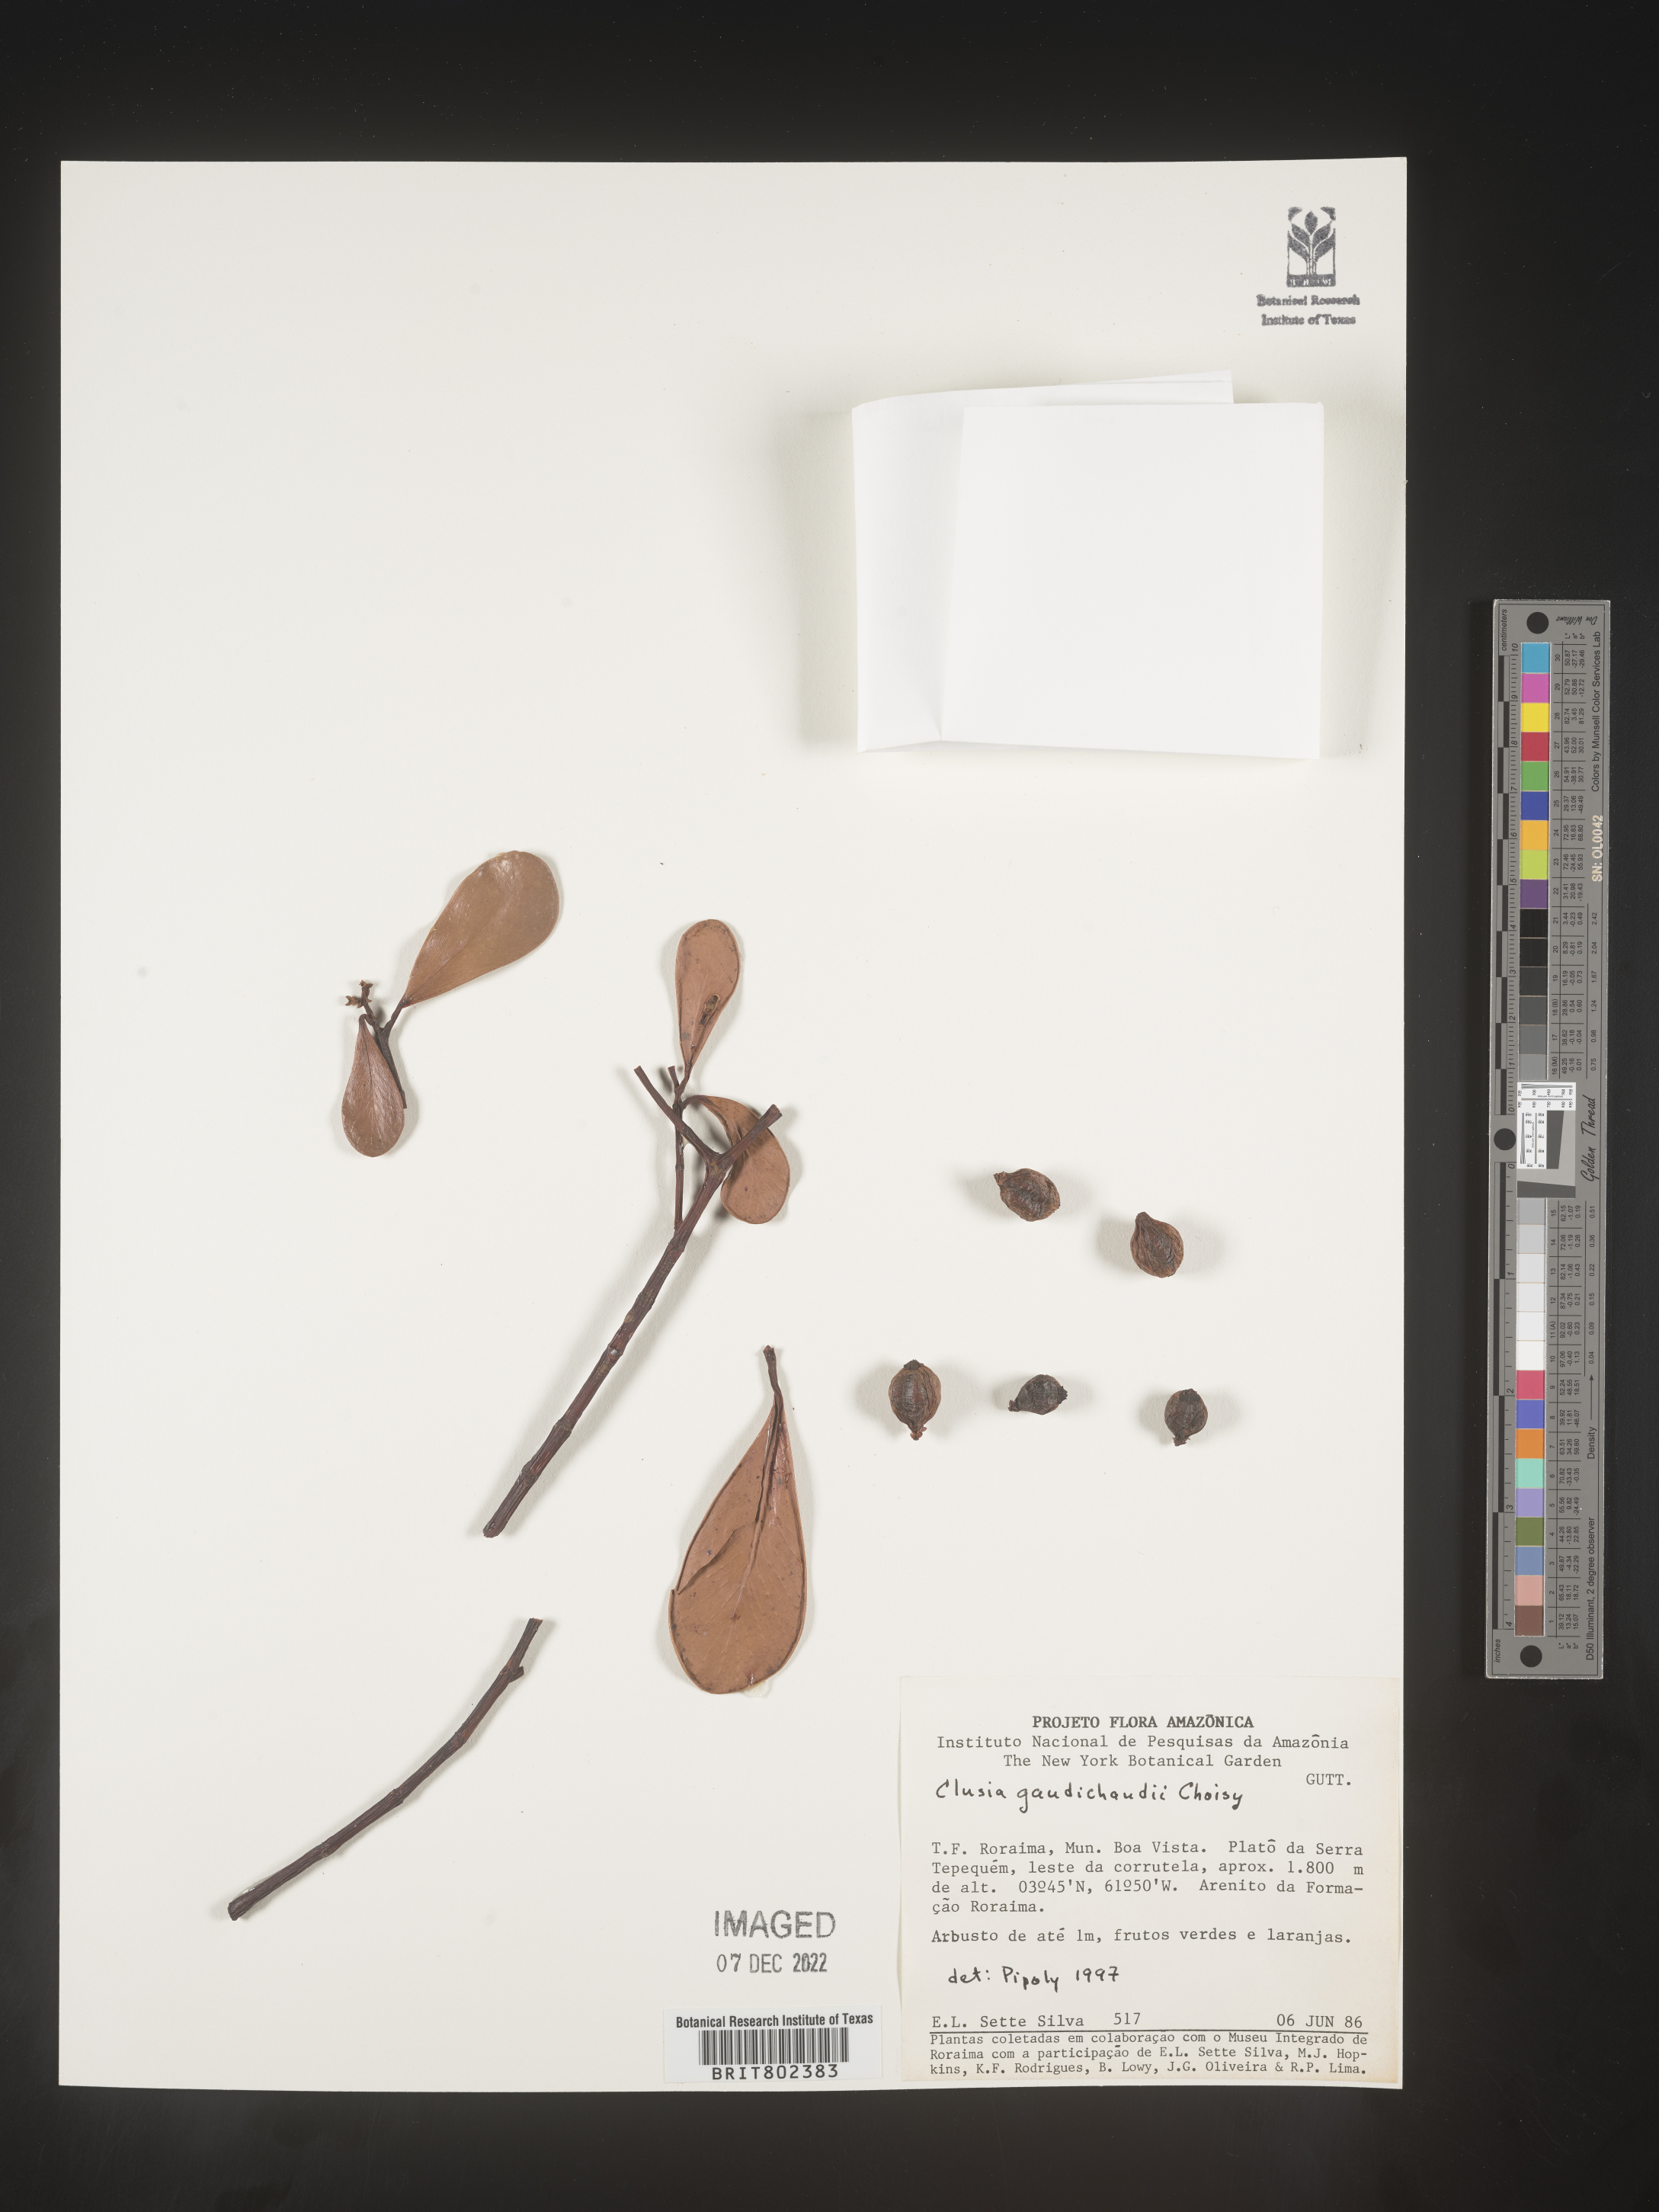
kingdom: Plantae
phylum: Tracheophyta
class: Magnoliopsida
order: Malpighiales
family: Clusiaceae
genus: Clusia
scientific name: Clusia
